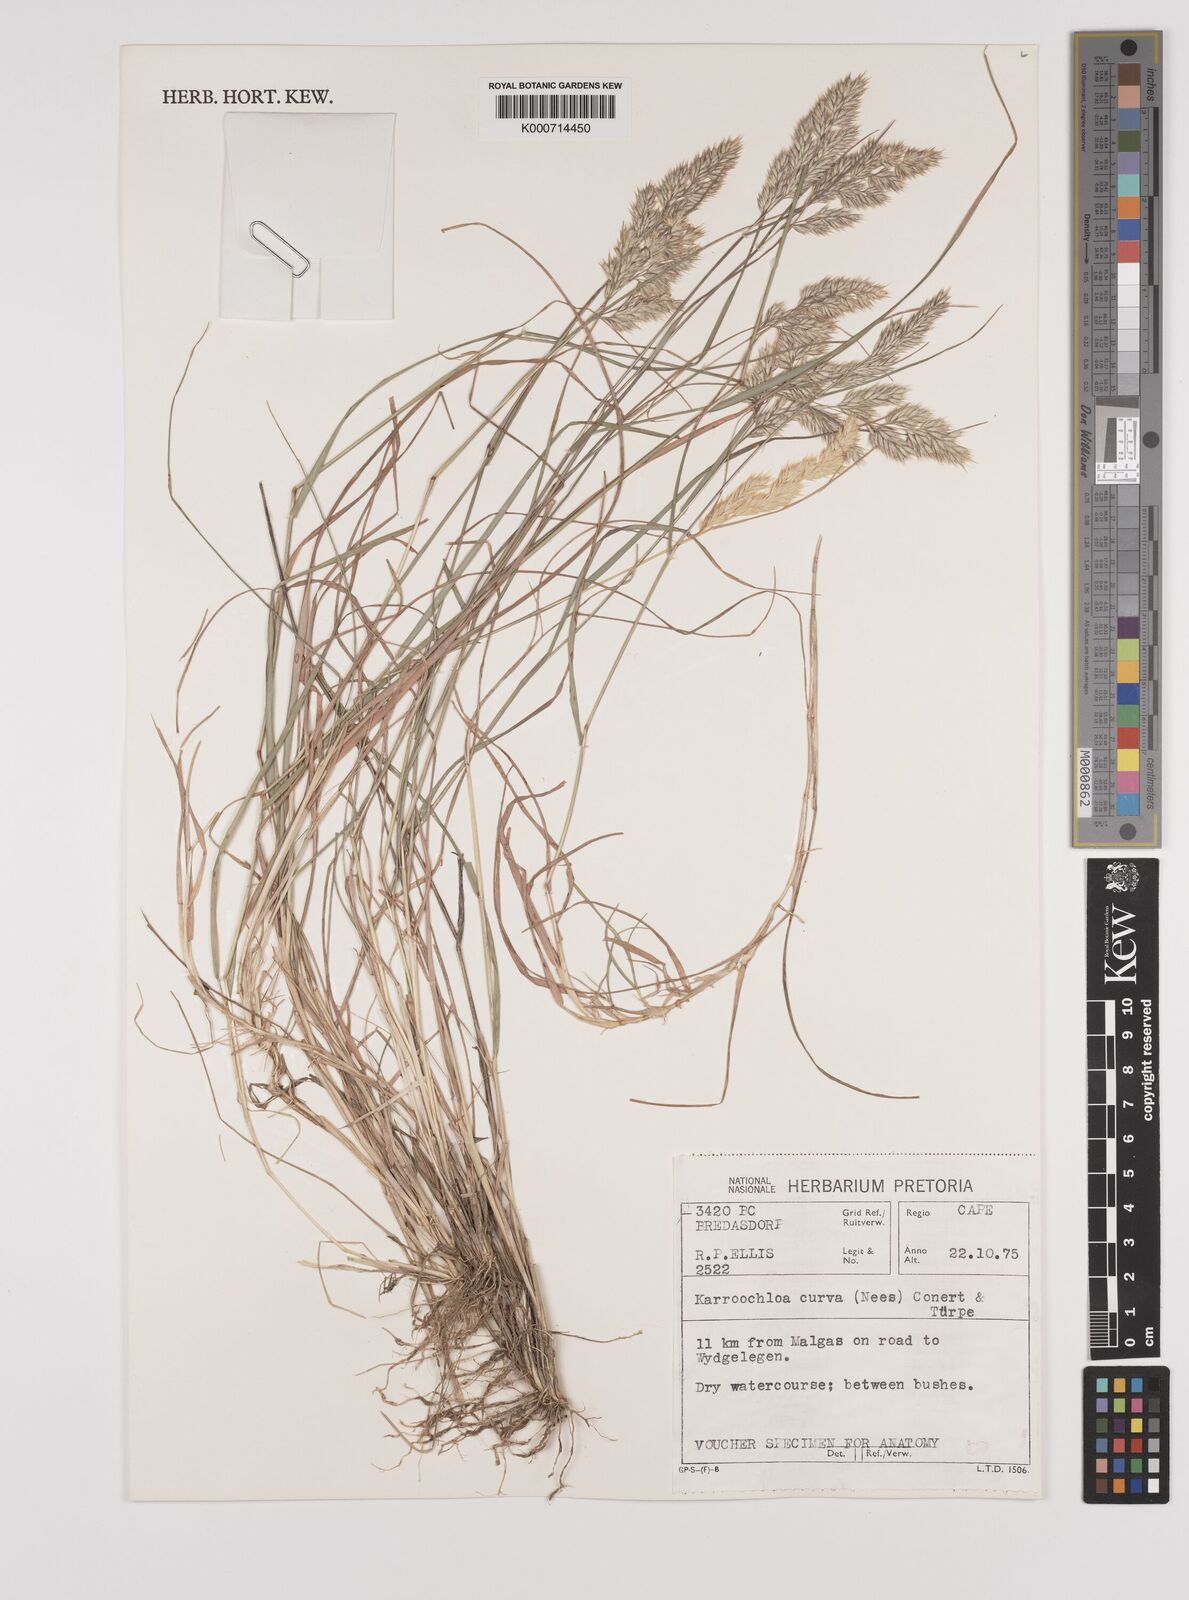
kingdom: Plantae
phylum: Tracheophyta
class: Liliopsida
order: Poales
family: Poaceae
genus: Rytidosperma
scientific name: Rytidosperma
